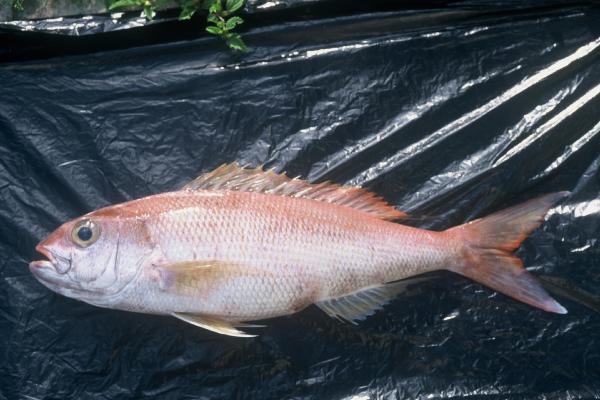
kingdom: Animalia
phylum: Chordata
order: Perciformes
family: Lutjanidae
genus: Pristipomoides
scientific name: Pristipomoides zonatus
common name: Brigham's snapper fish
